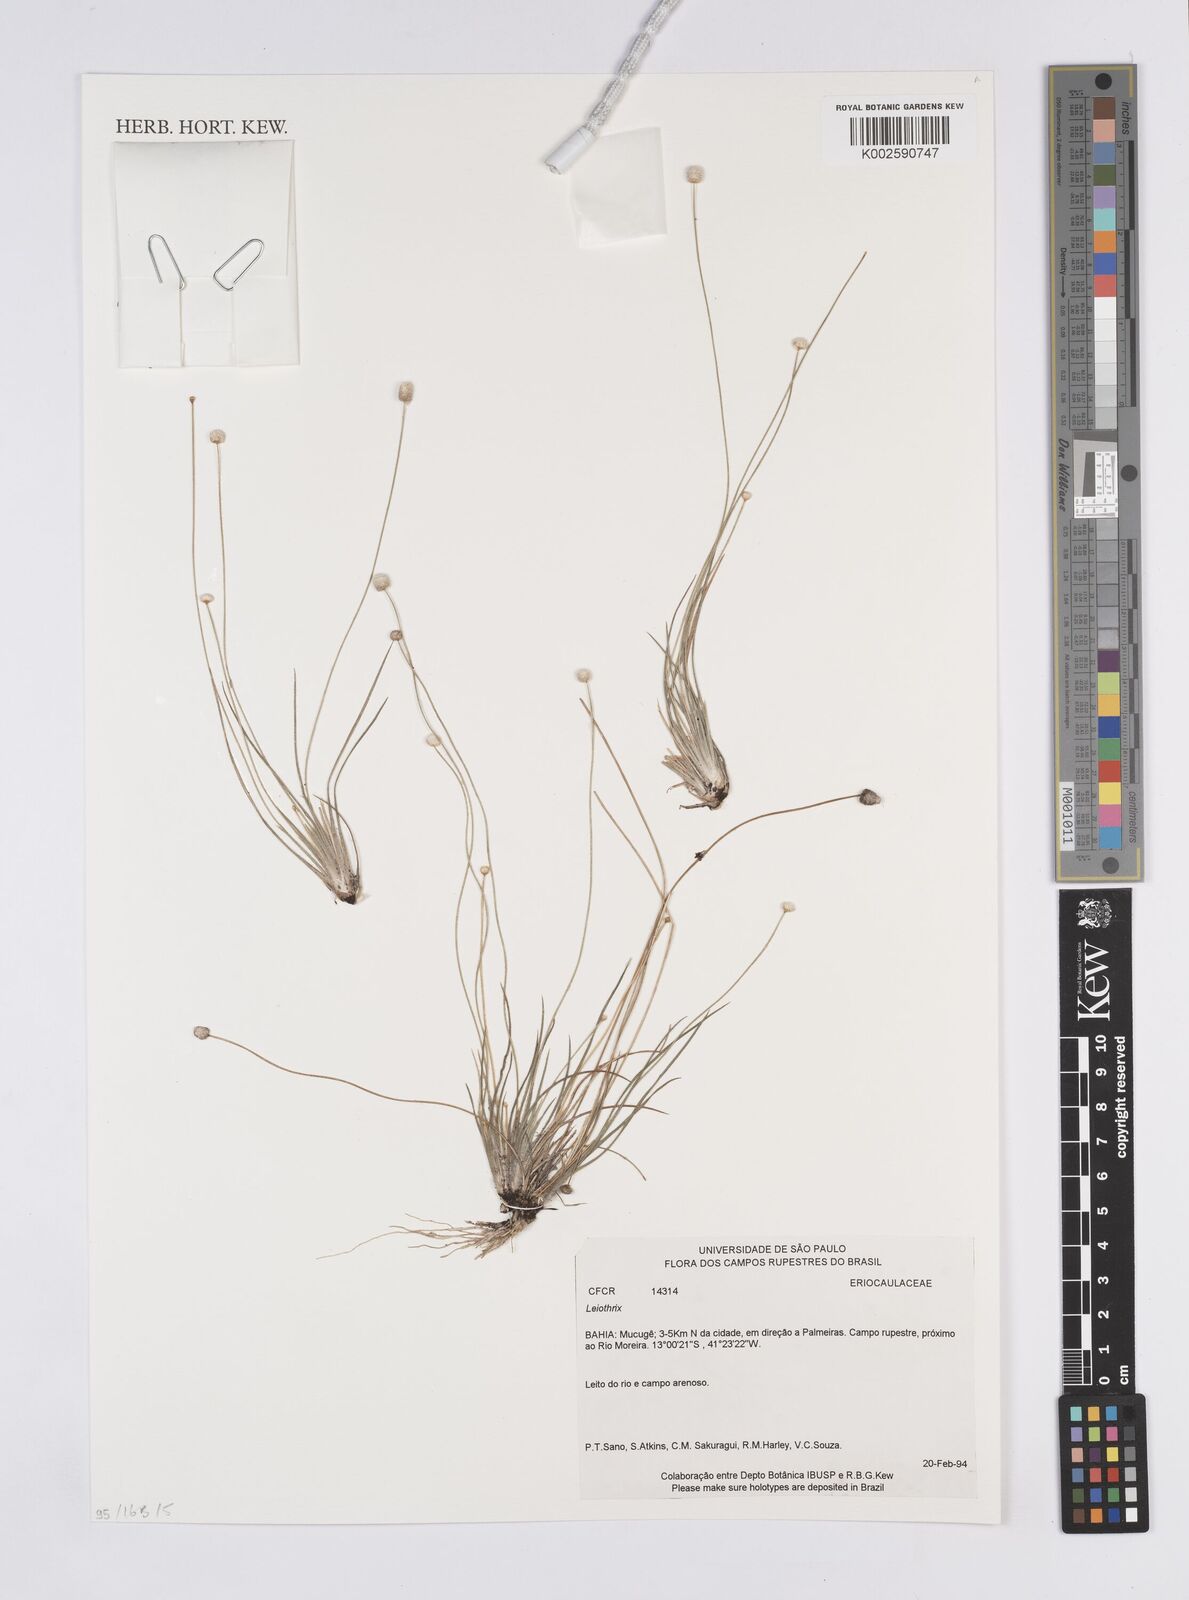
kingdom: Plantae
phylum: Tracheophyta
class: Liliopsida
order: Poales
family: Eriocaulaceae
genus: Leiothrix
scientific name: Leiothrix distichoclada
